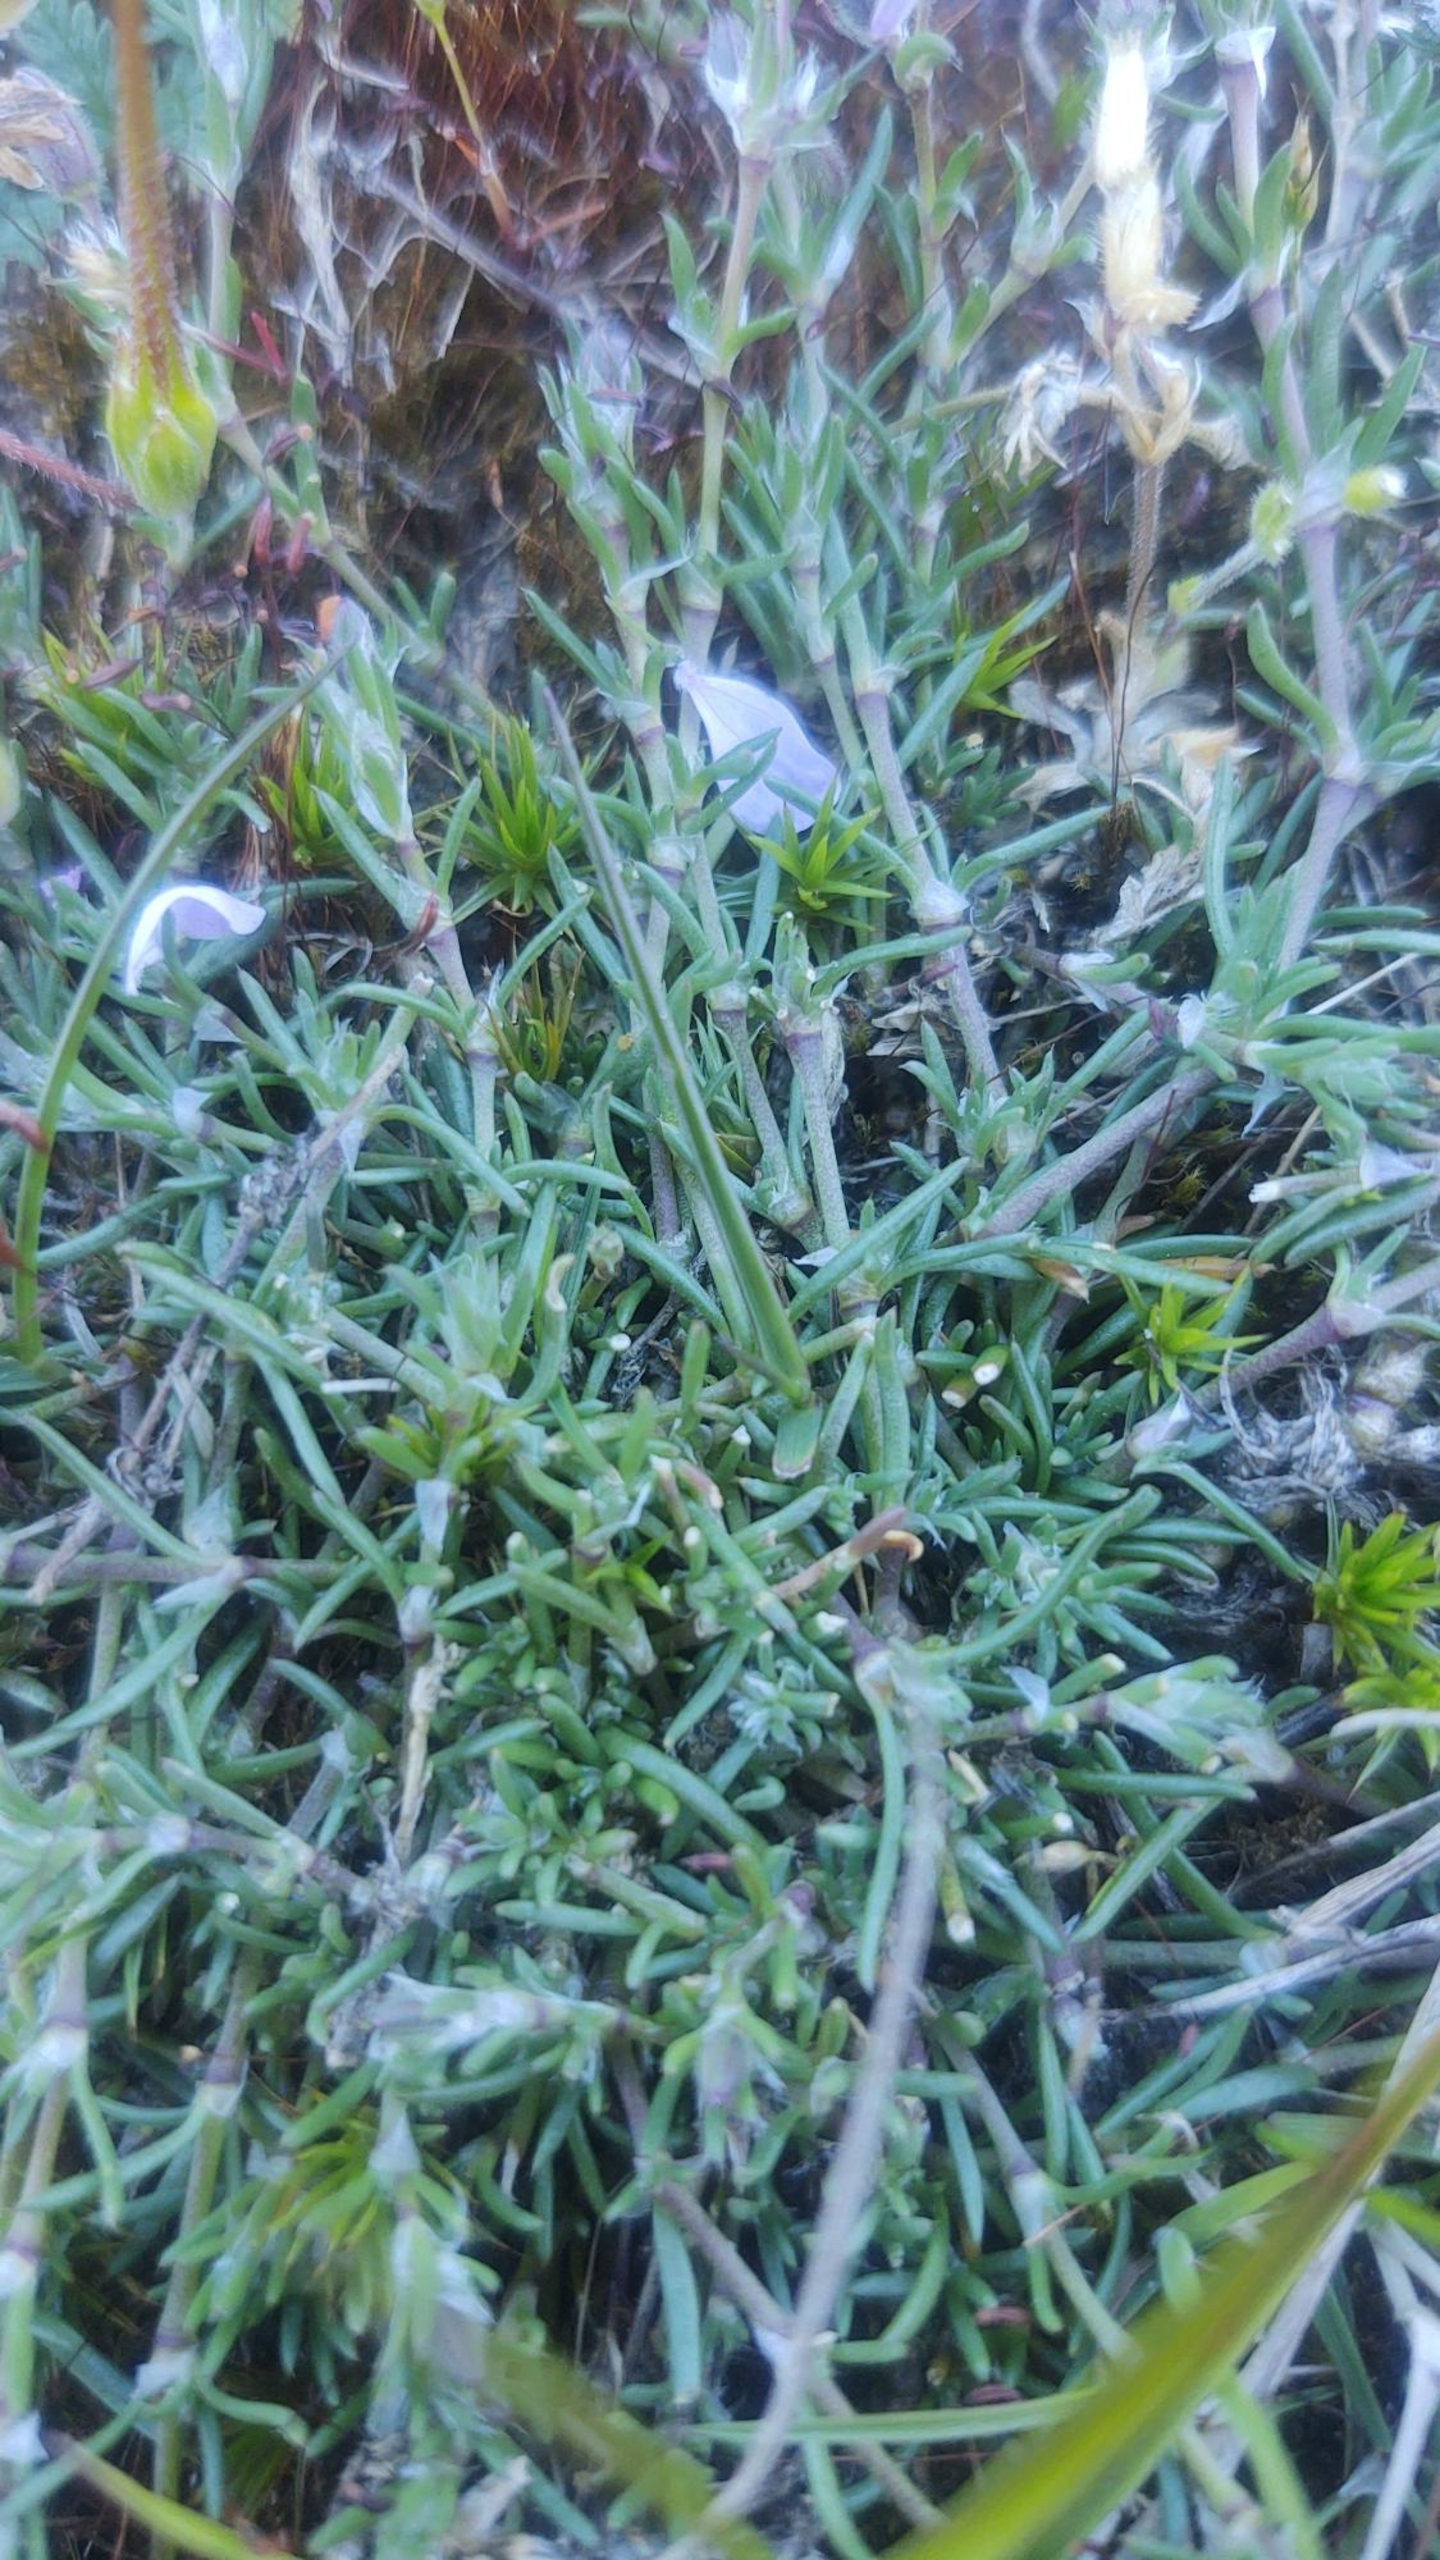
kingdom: Plantae
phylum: Tracheophyta
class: Magnoliopsida
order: Caryophyllales
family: Caryophyllaceae
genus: Spergularia
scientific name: Spergularia rubra
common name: Mark-hindeknæ
